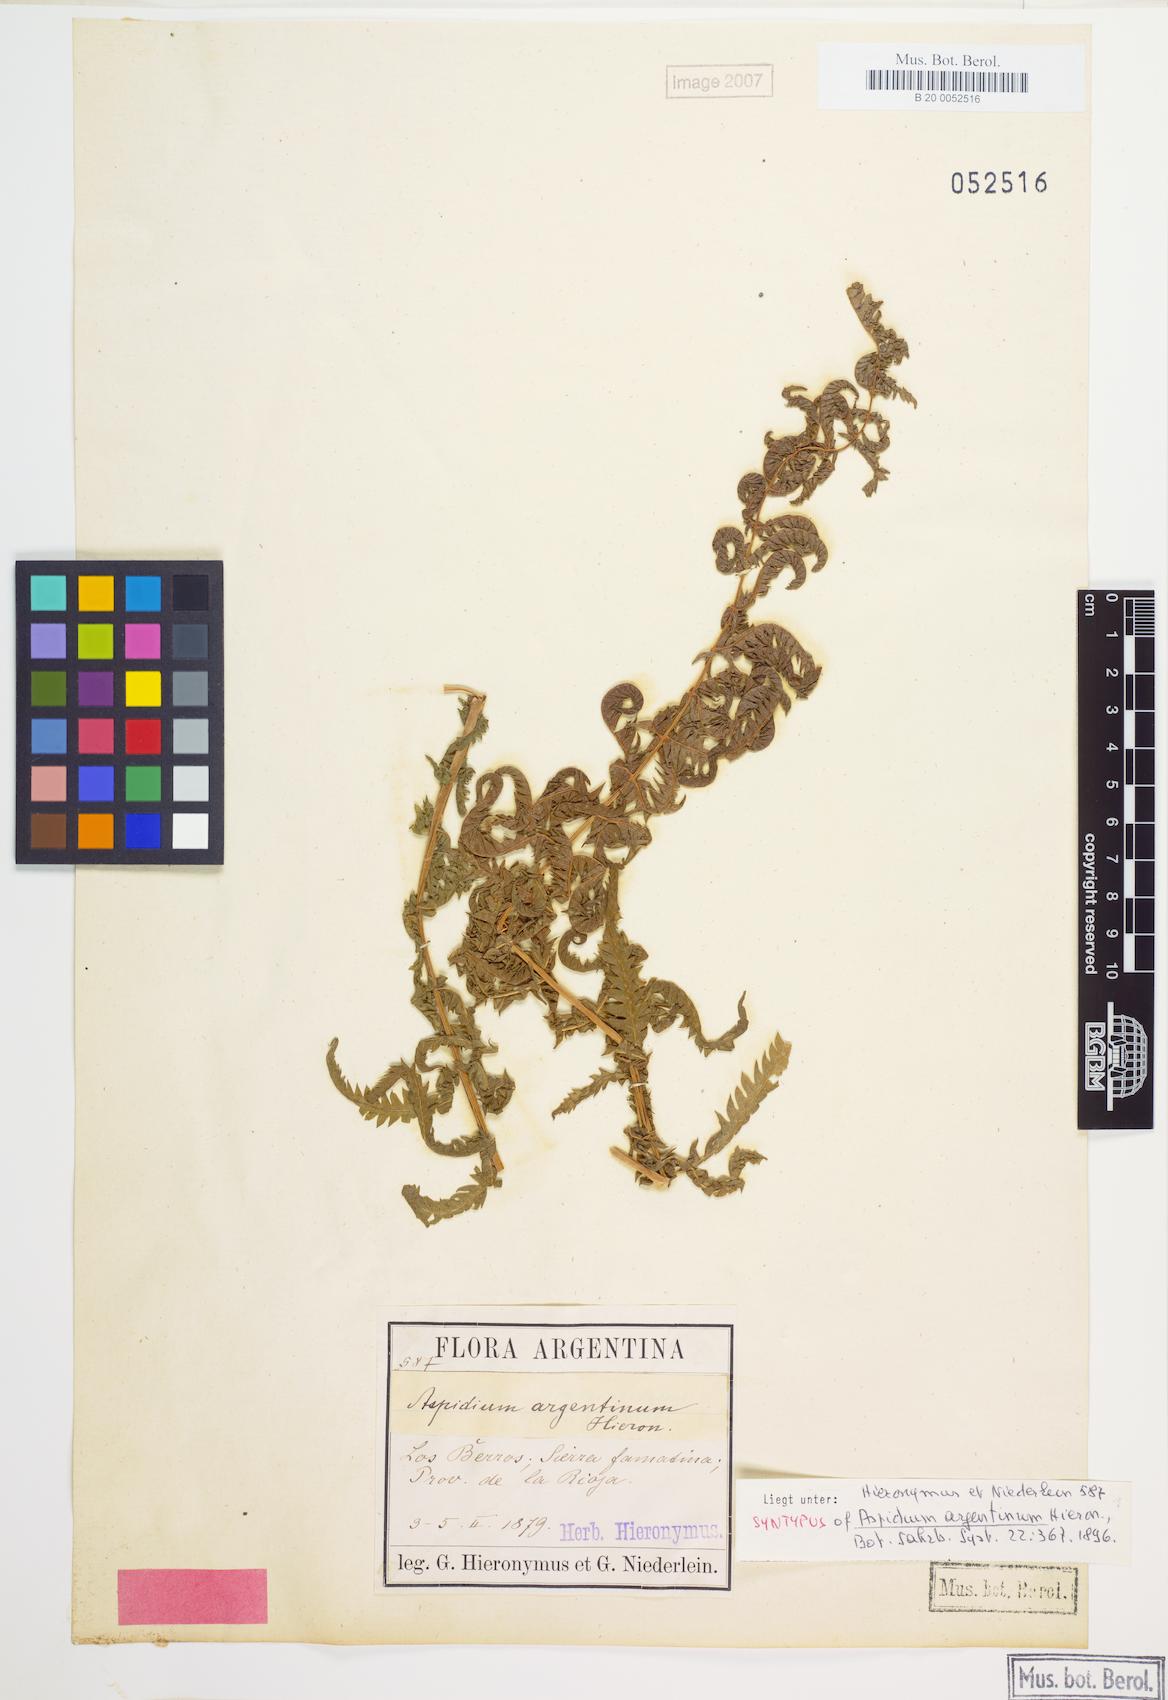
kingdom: Plantae
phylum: Tracheophyta
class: Polypodiopsida
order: Polypodiales
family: Thelypteridaceae
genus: Amauropelta
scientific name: Amauropelta argentina
